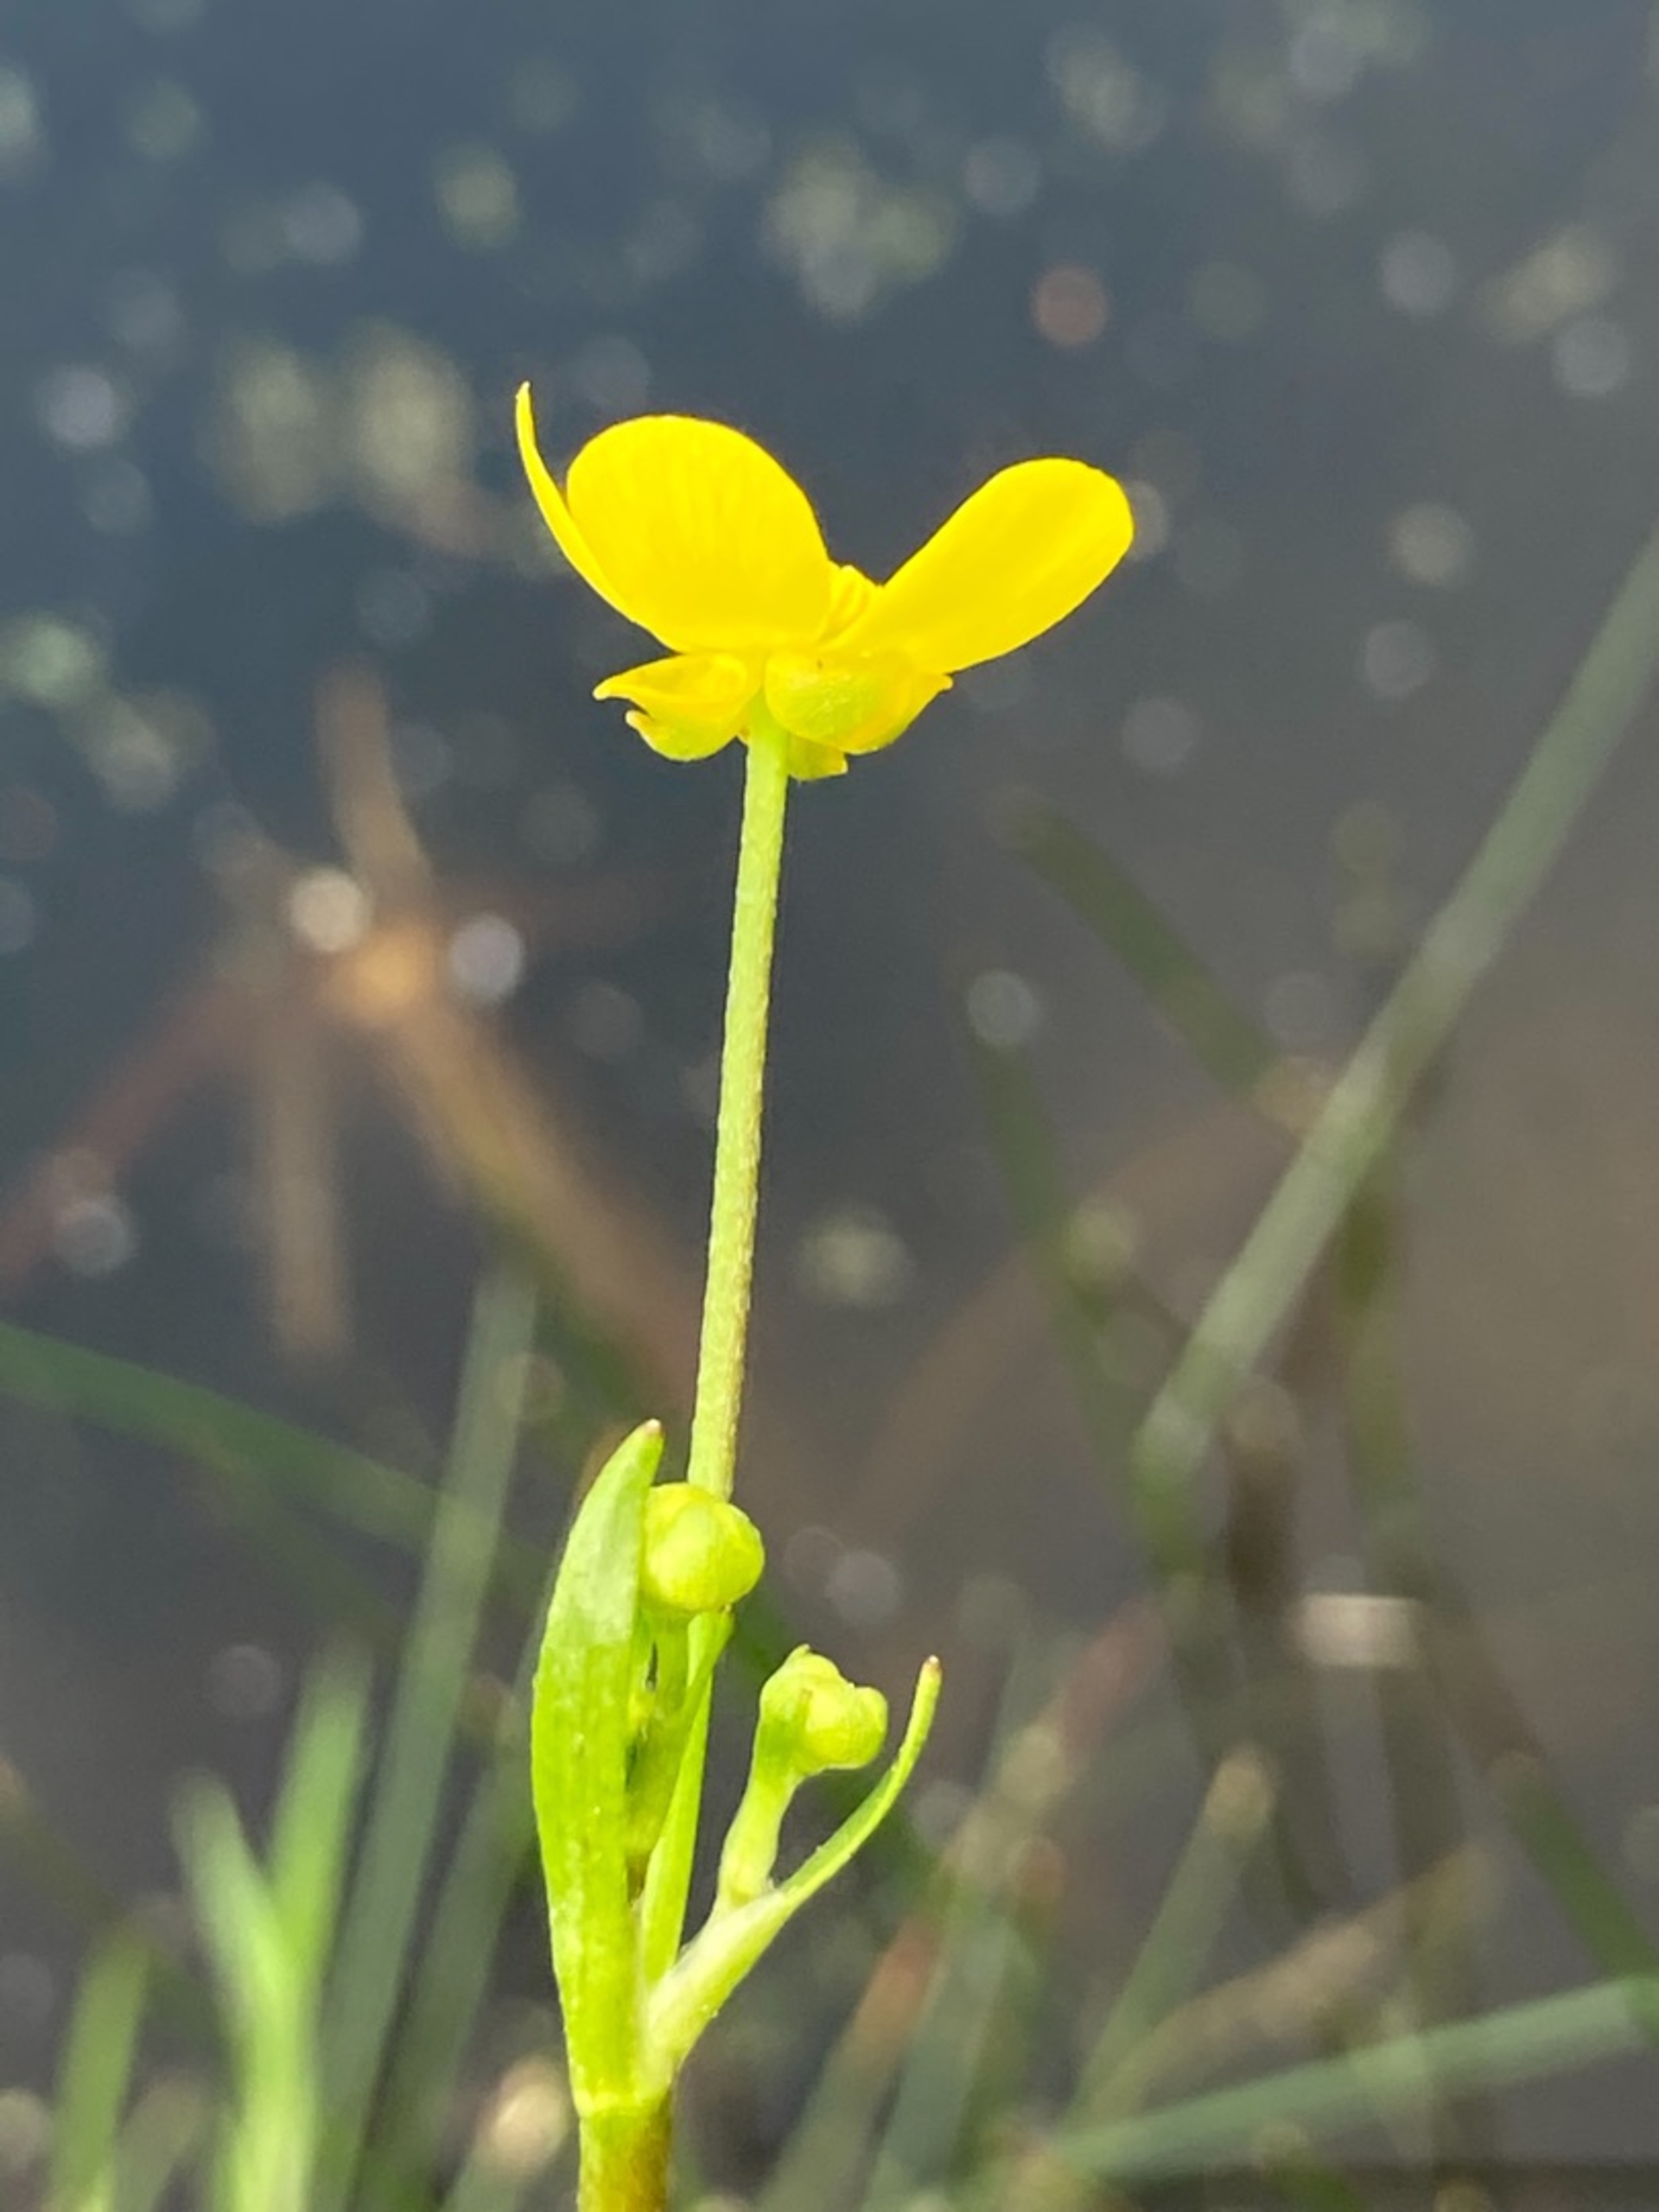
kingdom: Plantae
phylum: Tracheophyta
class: Magnoliopsida
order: Ranunculales
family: Ranunculaceae
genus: Ranunculus
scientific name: Ranunculus flammula
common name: Kær-ranunkel
